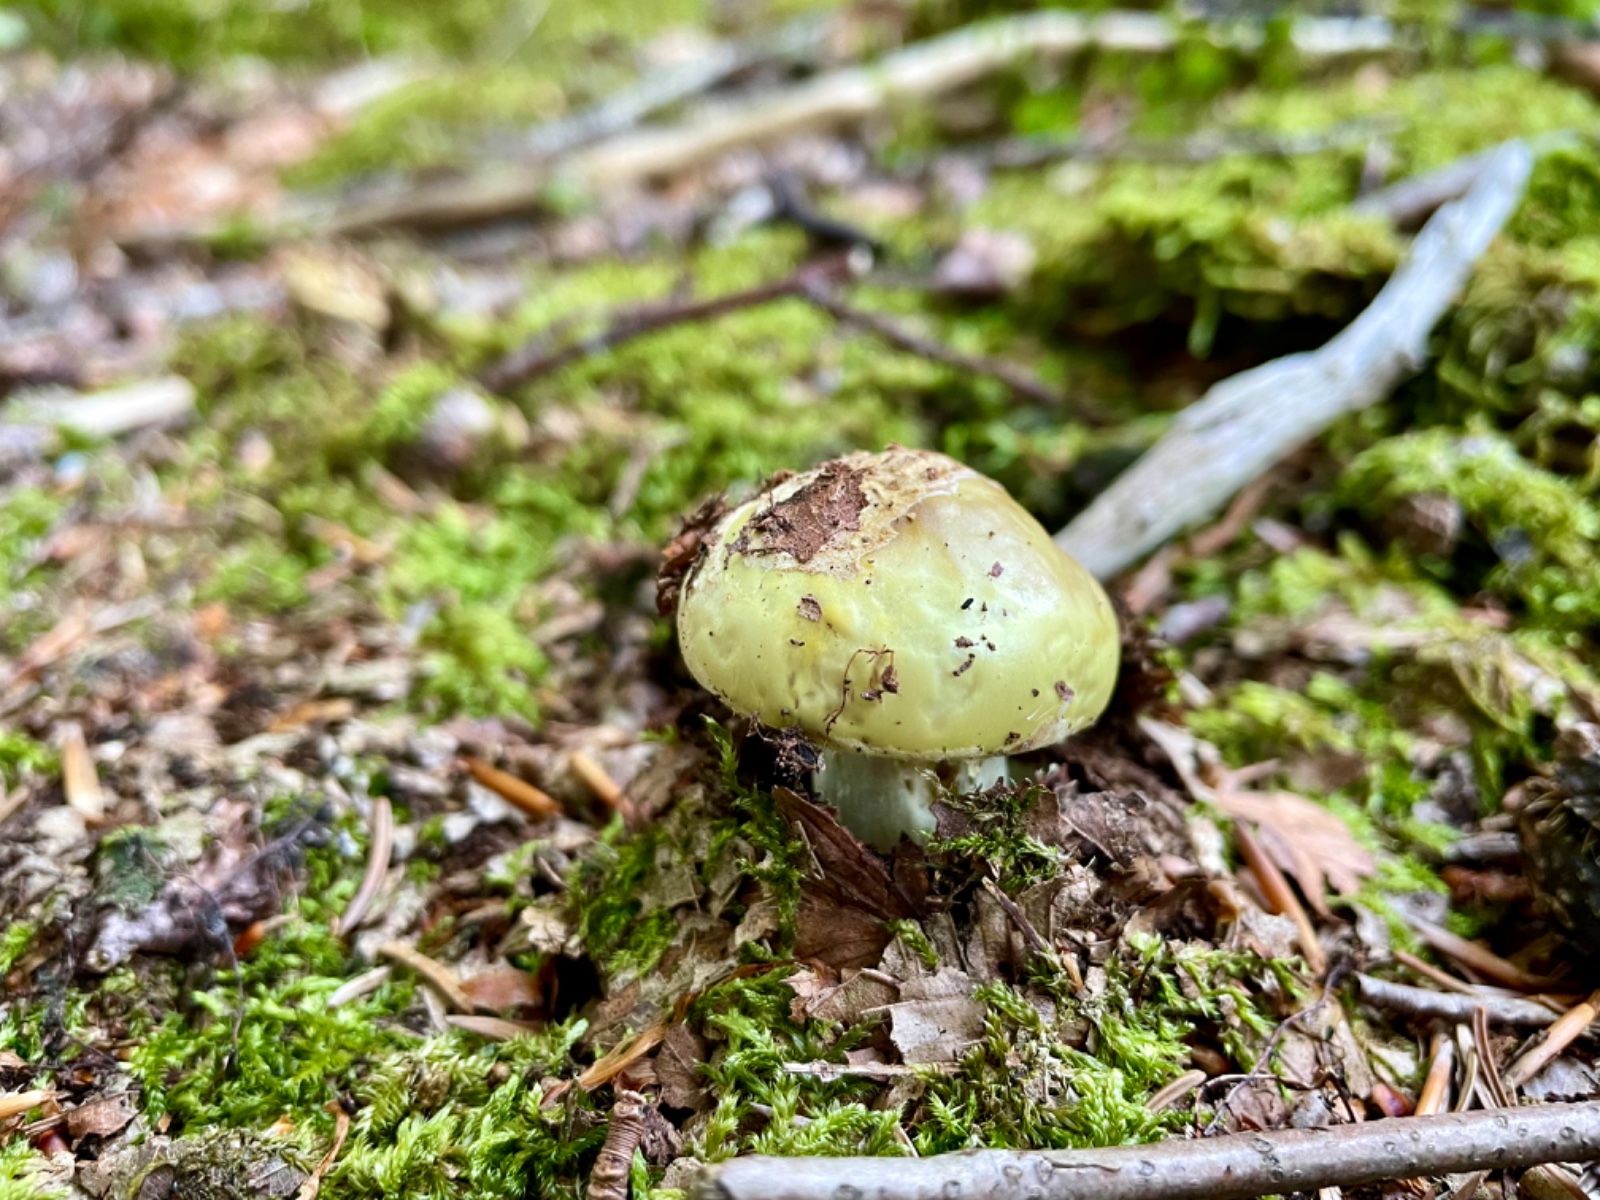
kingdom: Fungi
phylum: Basidiomycota
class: Agaricomycetes
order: Agaricales
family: Amanitaceae
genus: Amanita
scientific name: Amanita citrina
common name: kugleknoldet fluesvamp
